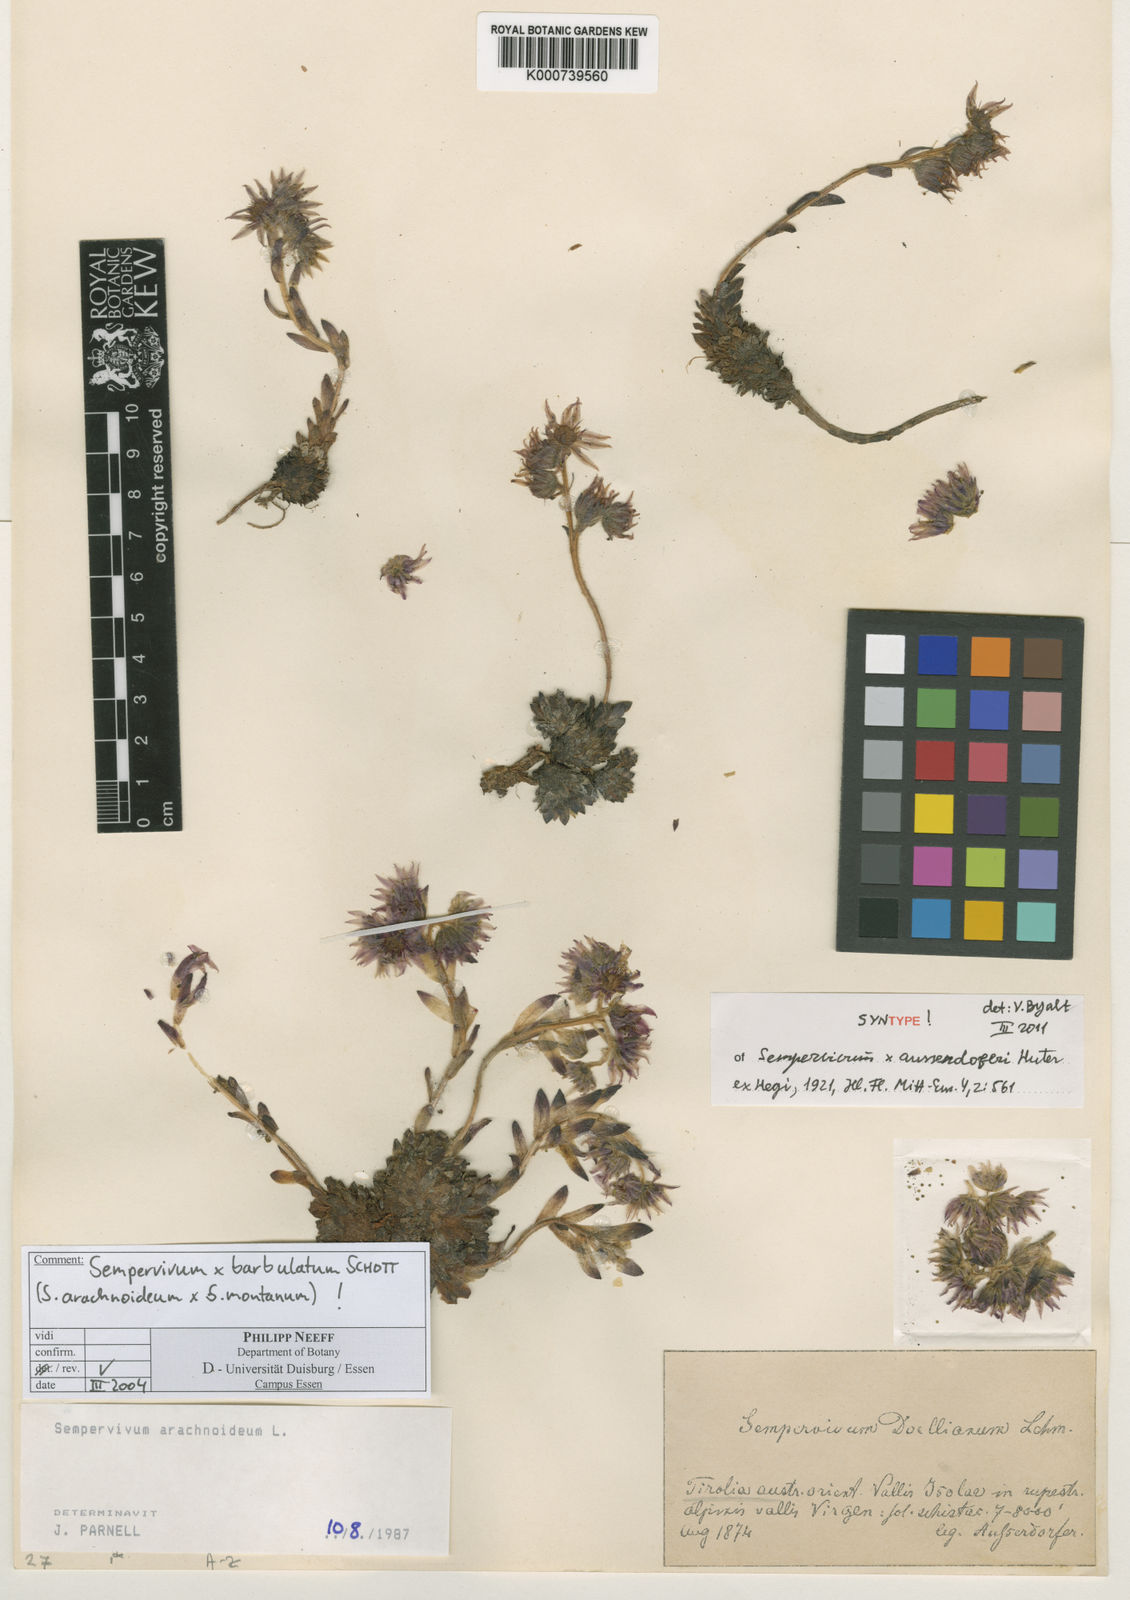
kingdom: Plantae
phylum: Tracheophyta
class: Magnoliopsida
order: Saxifragales
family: Crassulaceae
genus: Sempervivum
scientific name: Sempervivum
